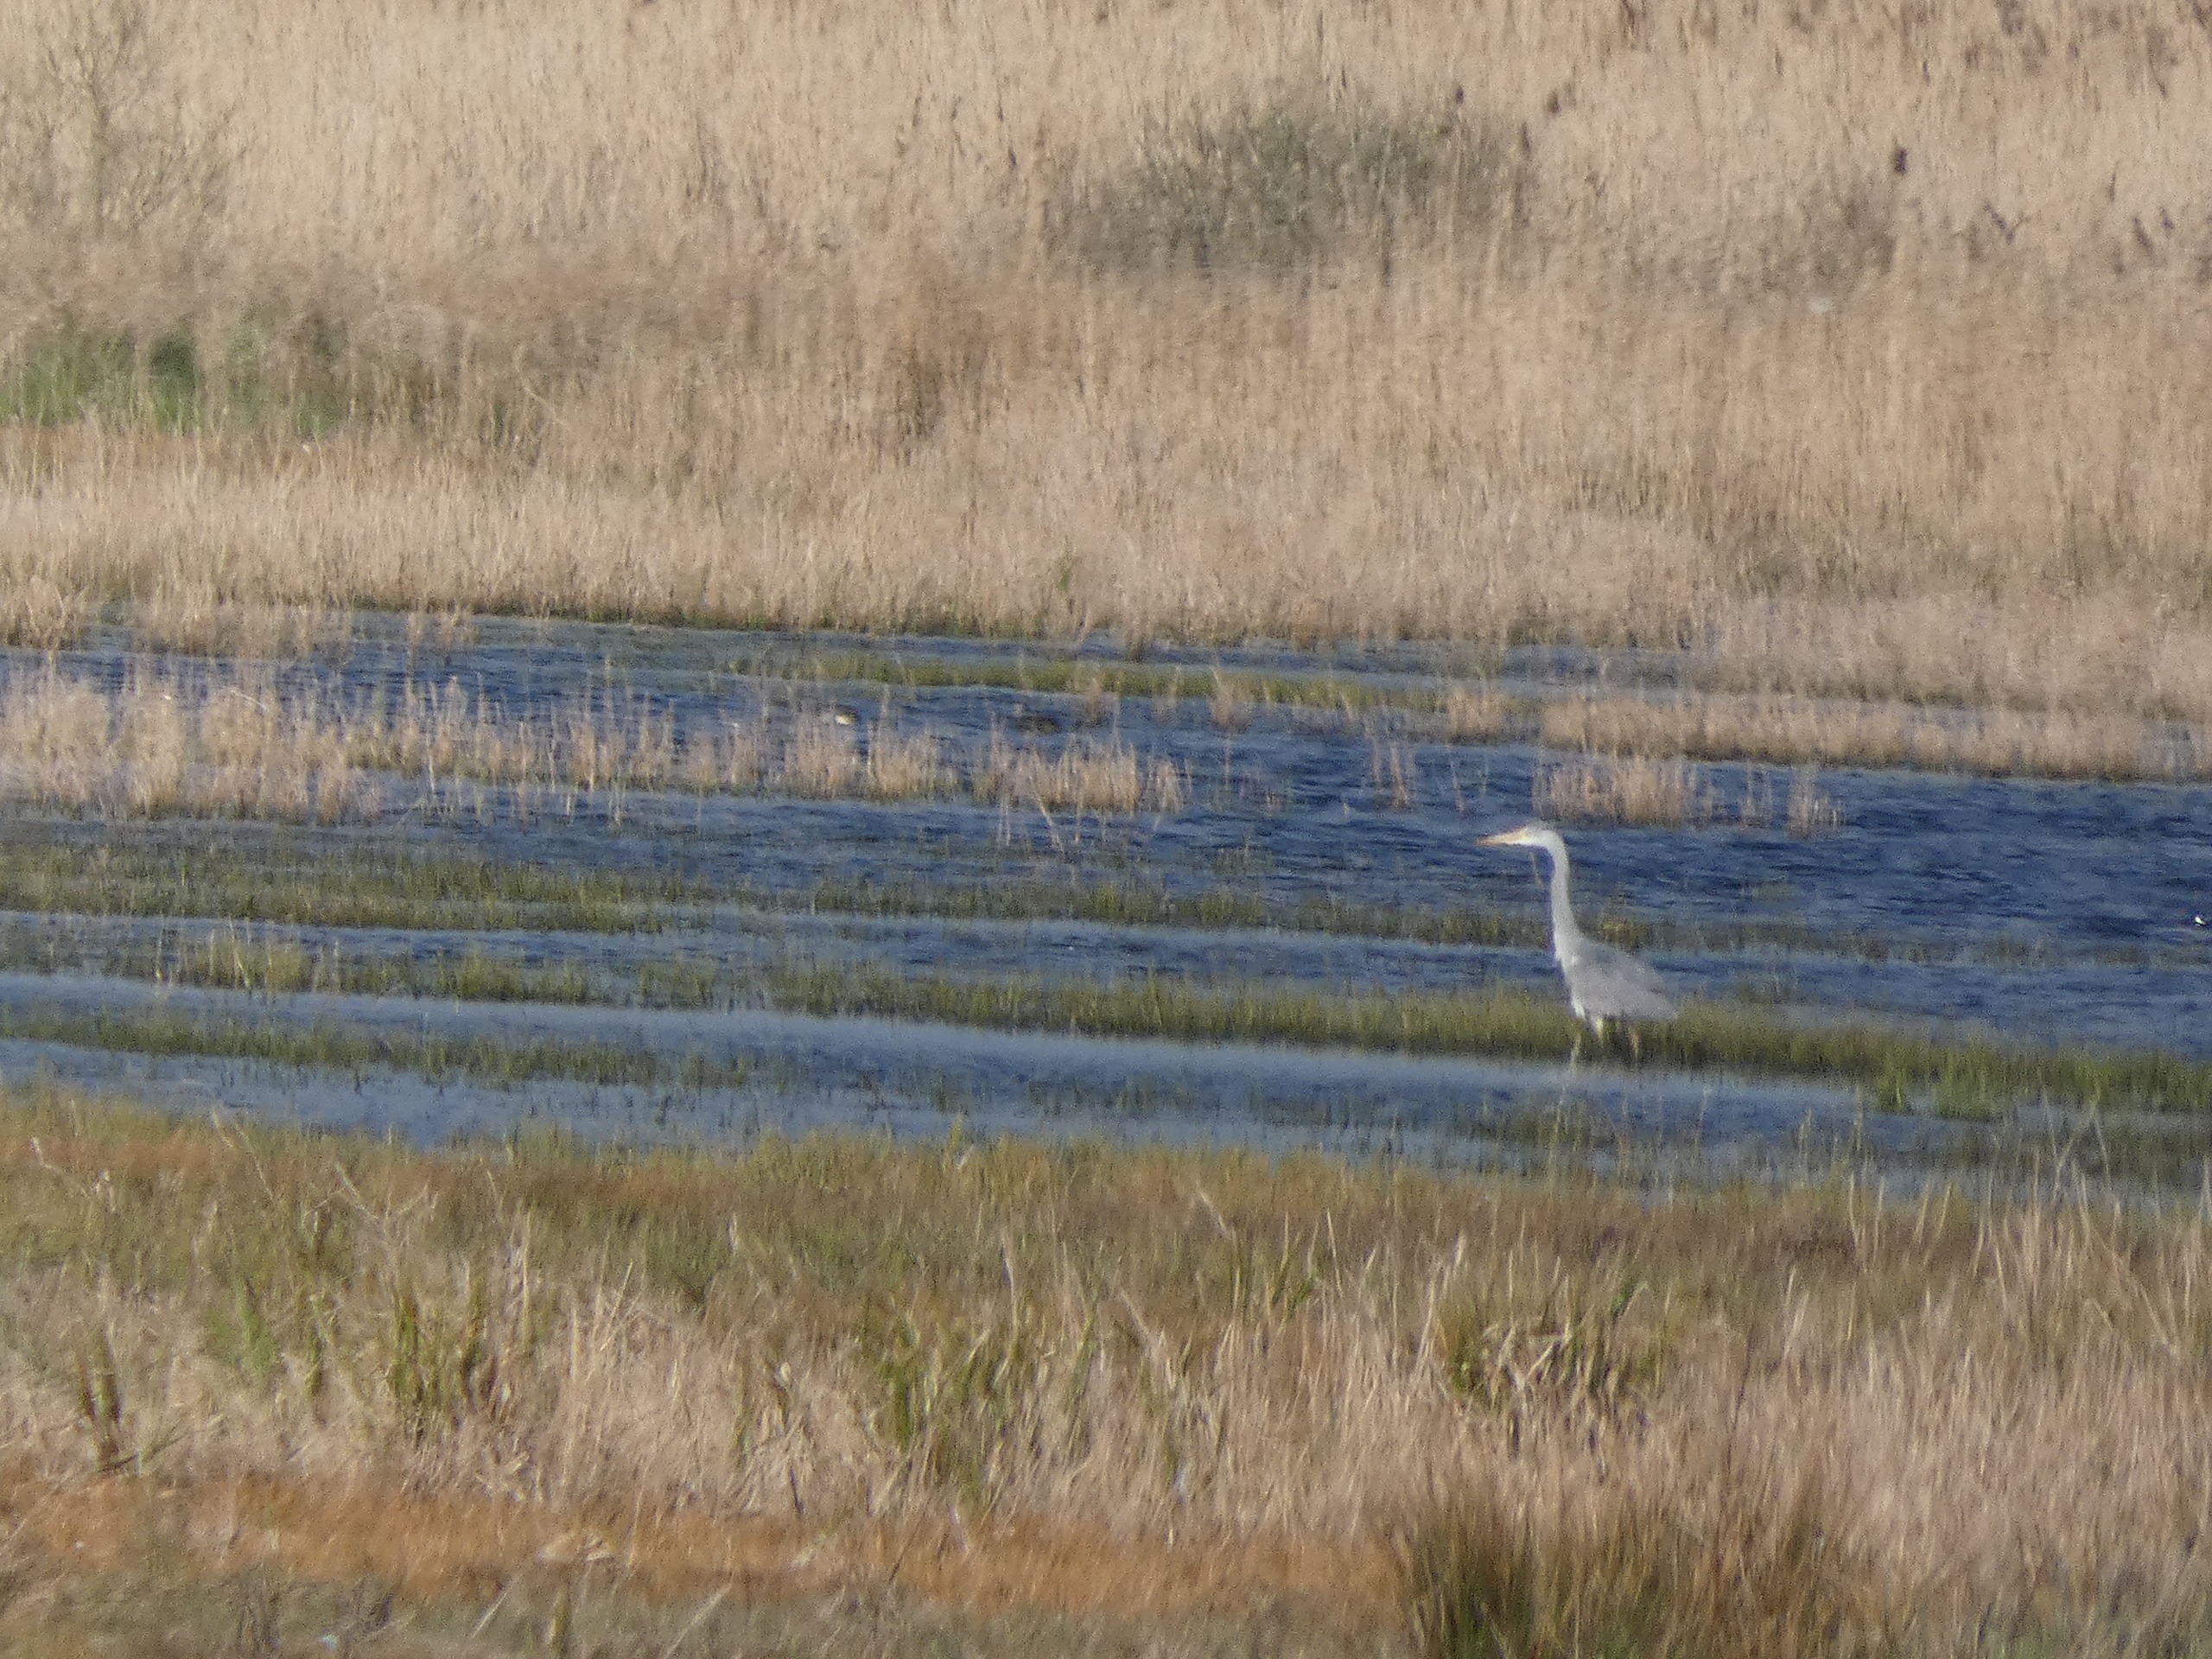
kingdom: Animalia
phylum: Chordata
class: Aves
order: Pelecaniformes
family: Ardeidae
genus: Ardea
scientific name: Ardea cinerea
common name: Fiskehejre
